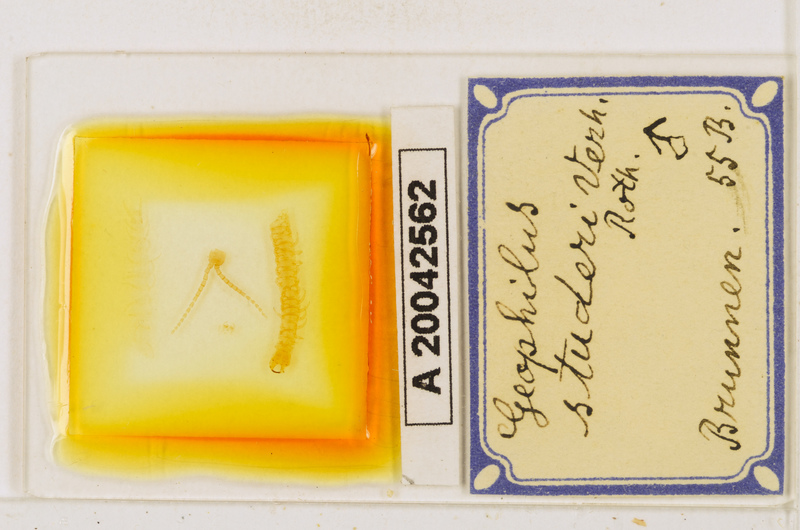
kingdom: Animalia
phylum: Arthropoda
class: Chilopoda
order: Geophilomorpha
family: Geophilidae
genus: Geophilus
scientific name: Geophilus studeri
